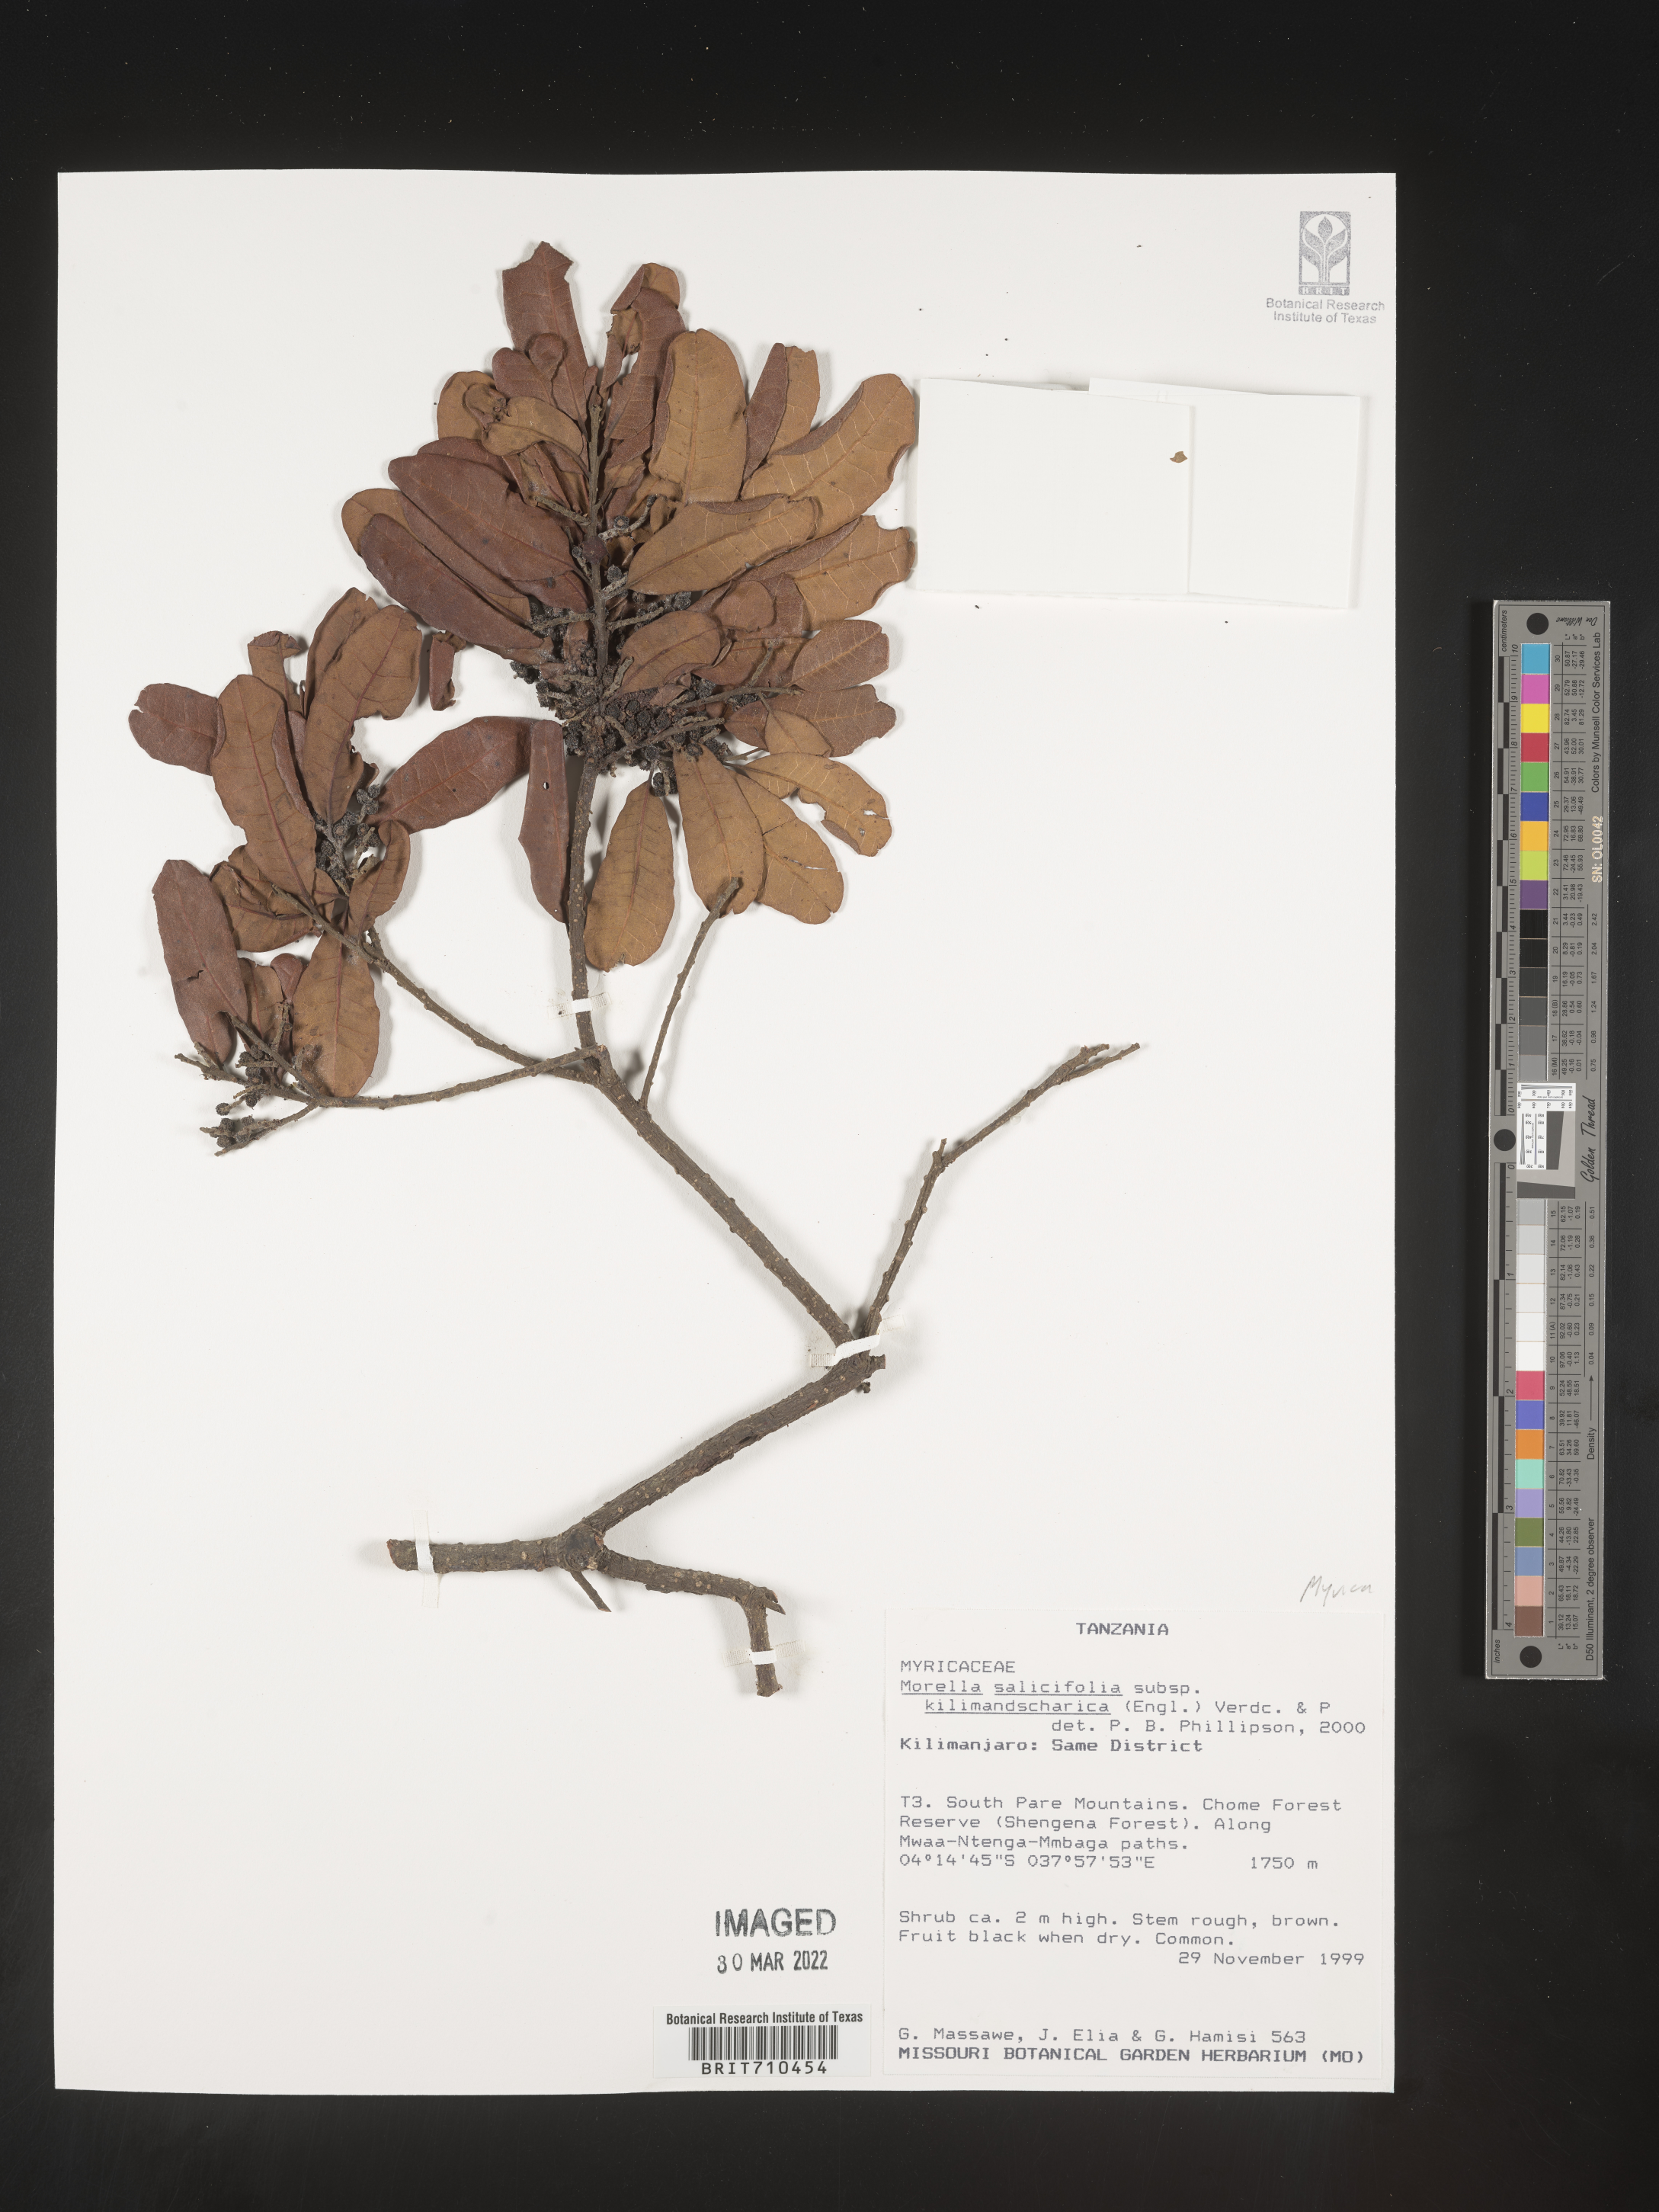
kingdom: Plantae
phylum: Tracheophyta
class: Magnoliopsida
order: Fagales
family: Myricaceae
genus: Morella
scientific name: Morella
